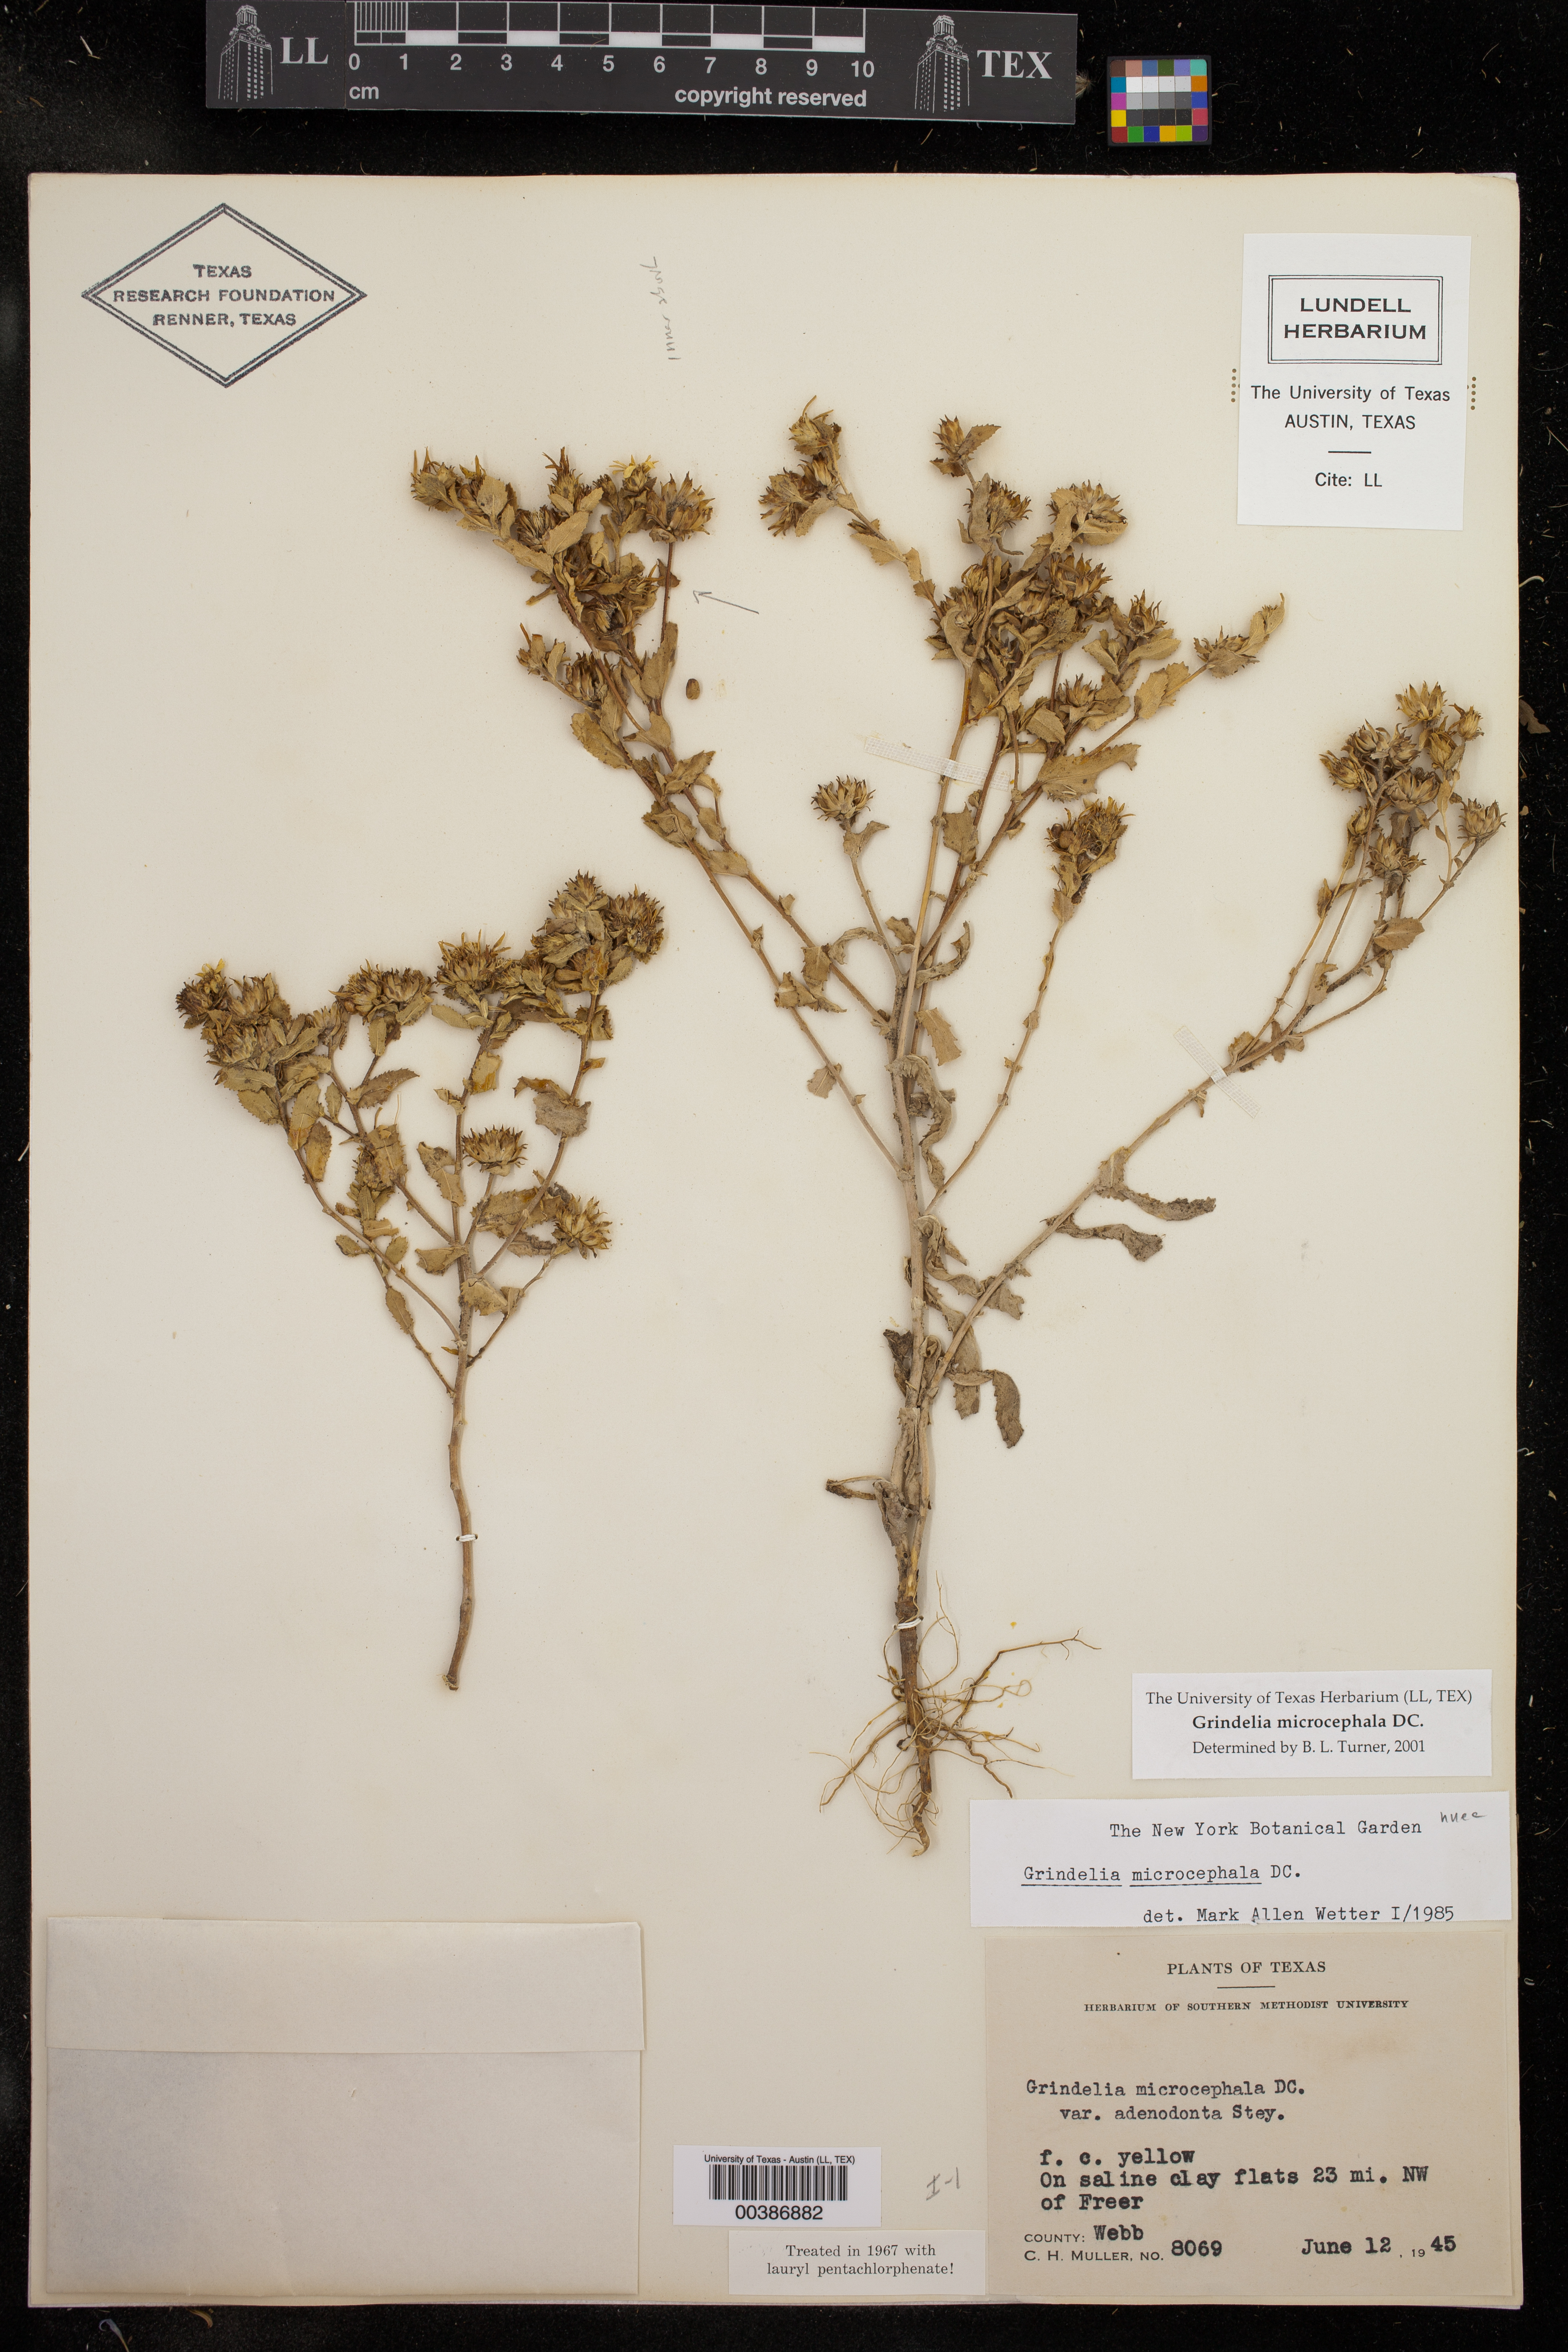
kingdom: Plantae
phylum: Tracheophyta
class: Magnoliopsida
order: Asterales
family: Asteraceae
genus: Grindelia
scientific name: Grindelia microcephala
